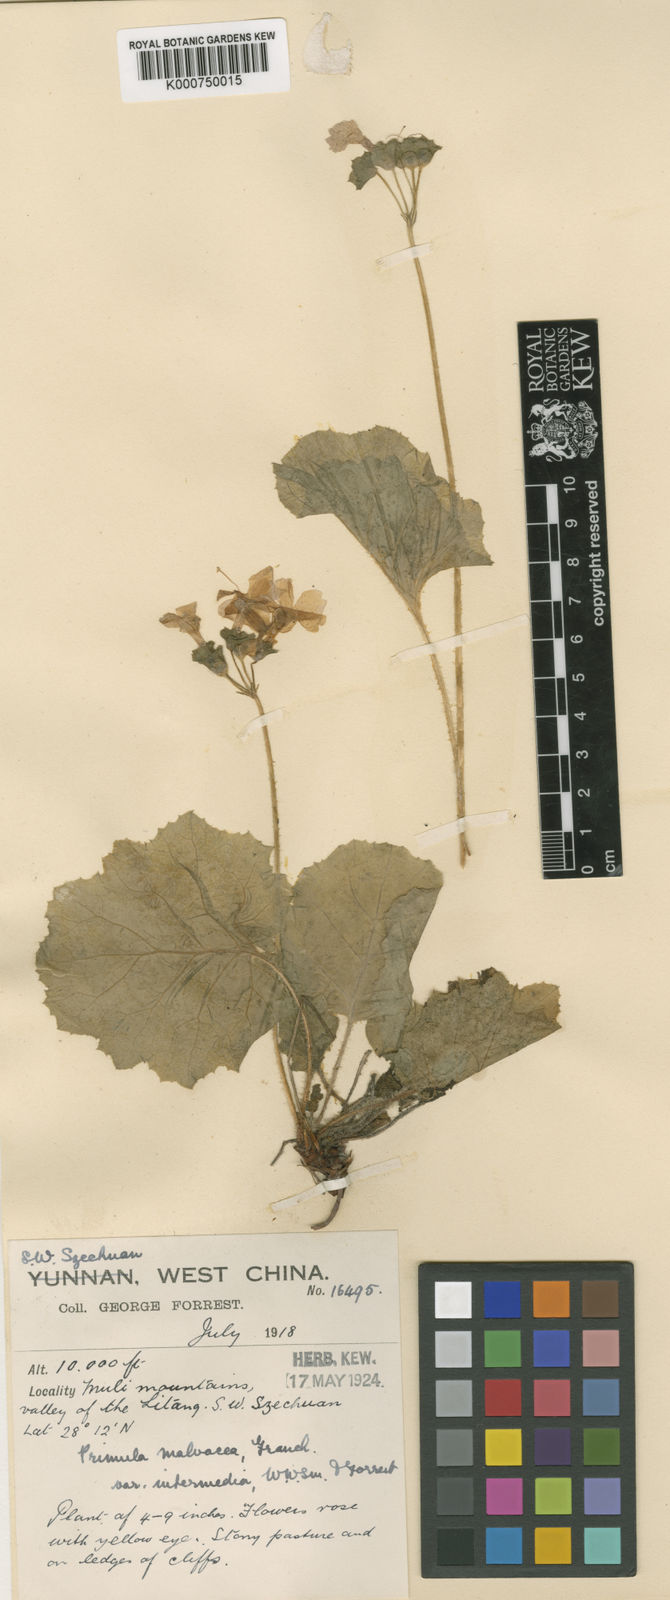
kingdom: Plantae
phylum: Tracheophyta
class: Magnoliopsida
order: Ericales
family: Primulaceae
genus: Primula
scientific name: Primula malvacea
